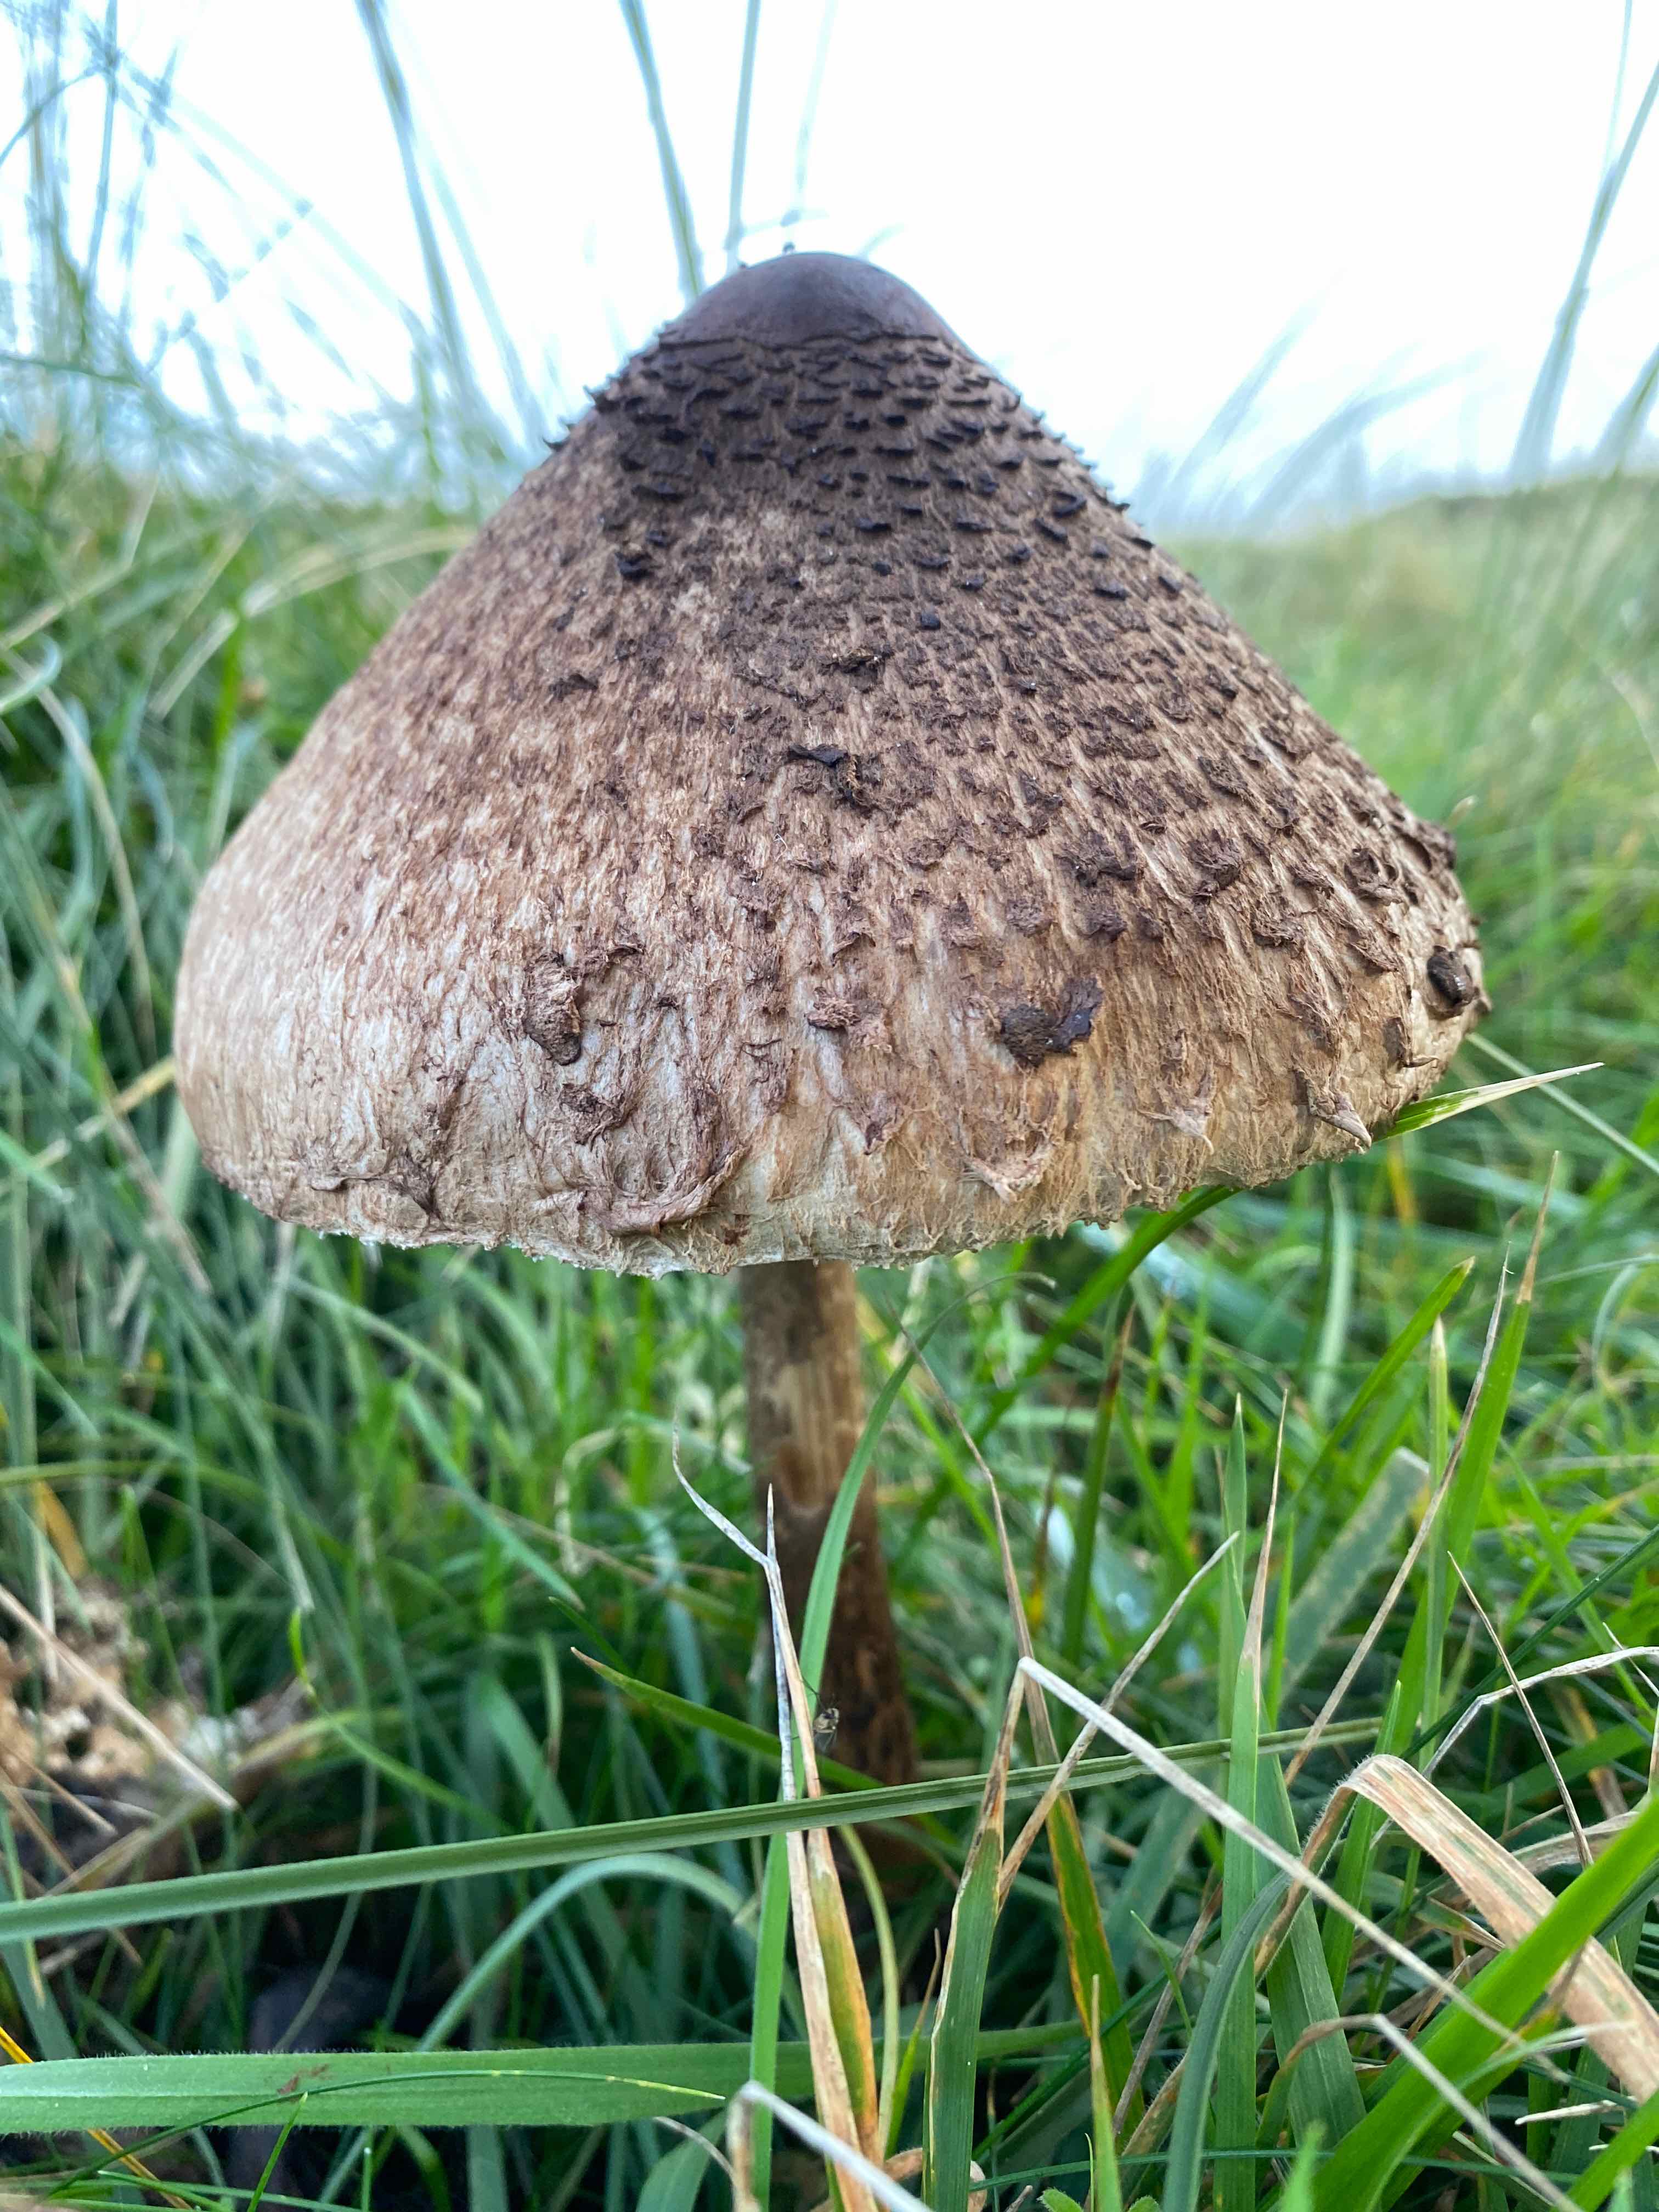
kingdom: Fungi
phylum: Basidiomycota
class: Agaricomycetes
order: Agaricales
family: Agaricaceae
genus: Macrolepiota
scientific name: Macrolepiota
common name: kæmpeparasolhat
